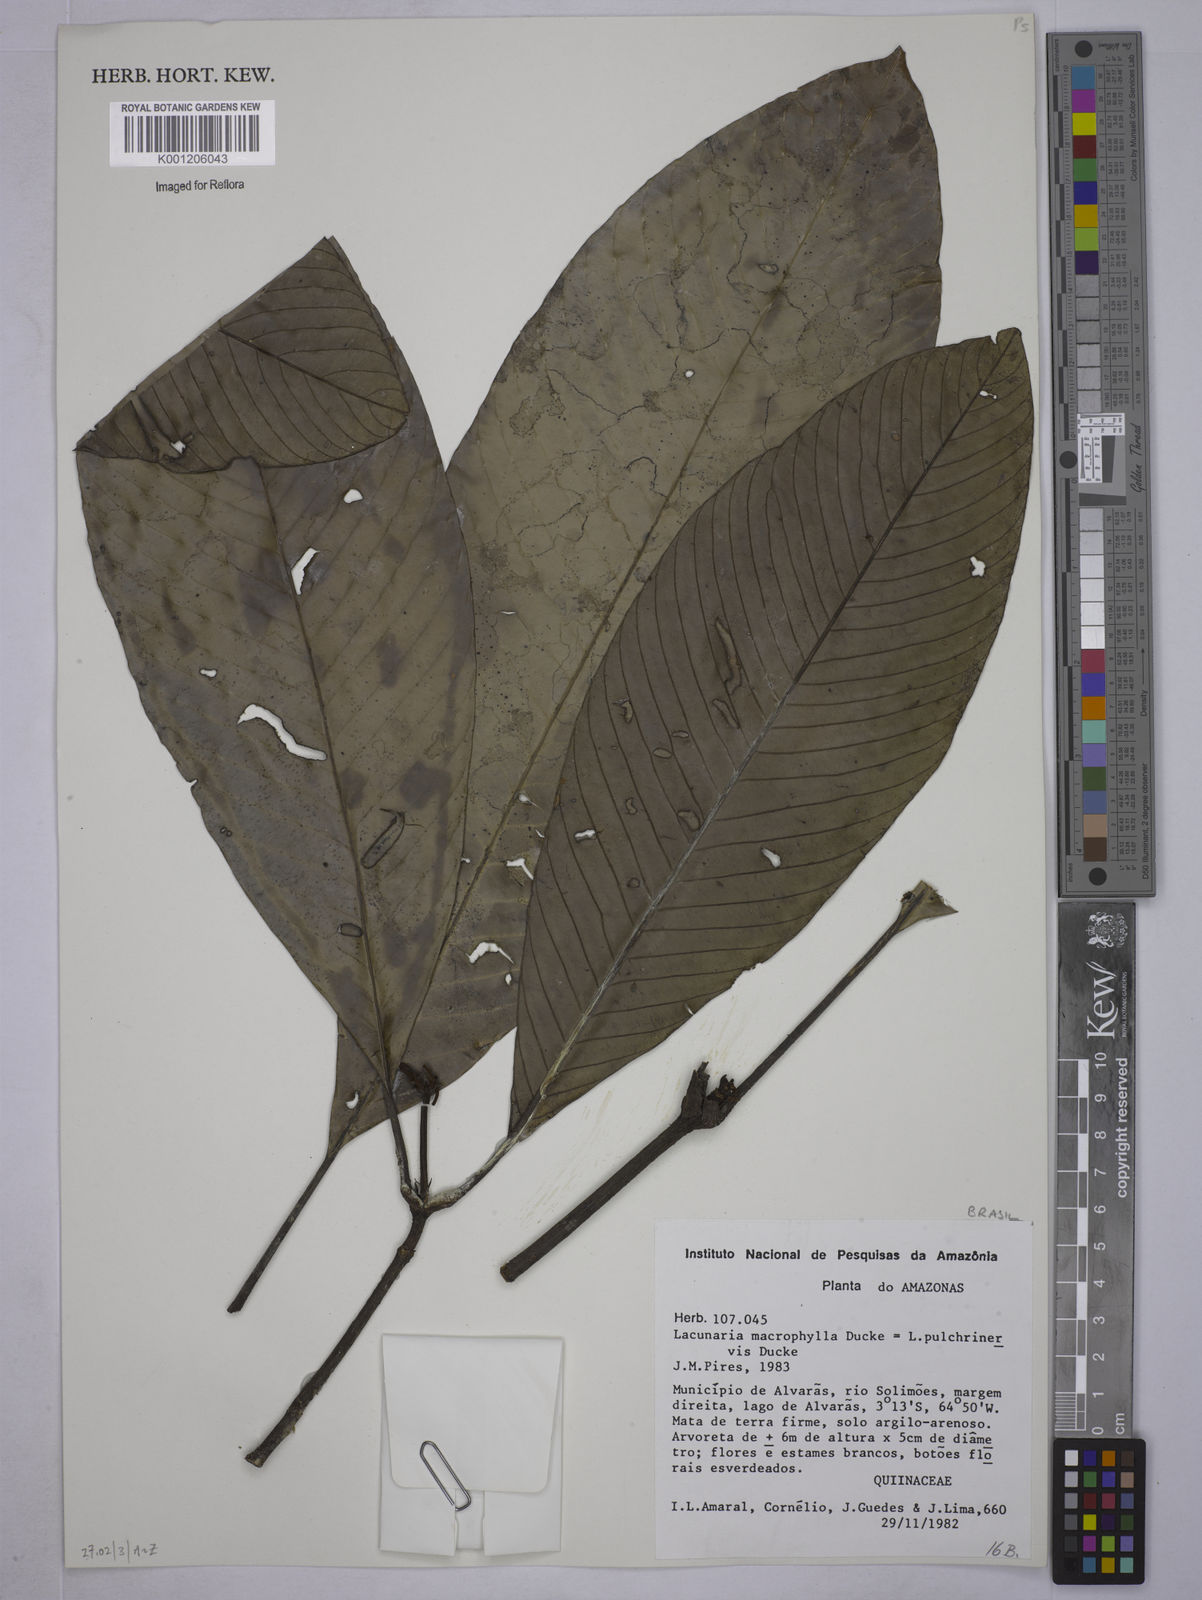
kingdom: Plantae
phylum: Tracheophyta
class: Magnoliopsida
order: Malpighiales
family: Quiinaceae
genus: Lacunaria
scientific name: Lacunaria grandifolia
